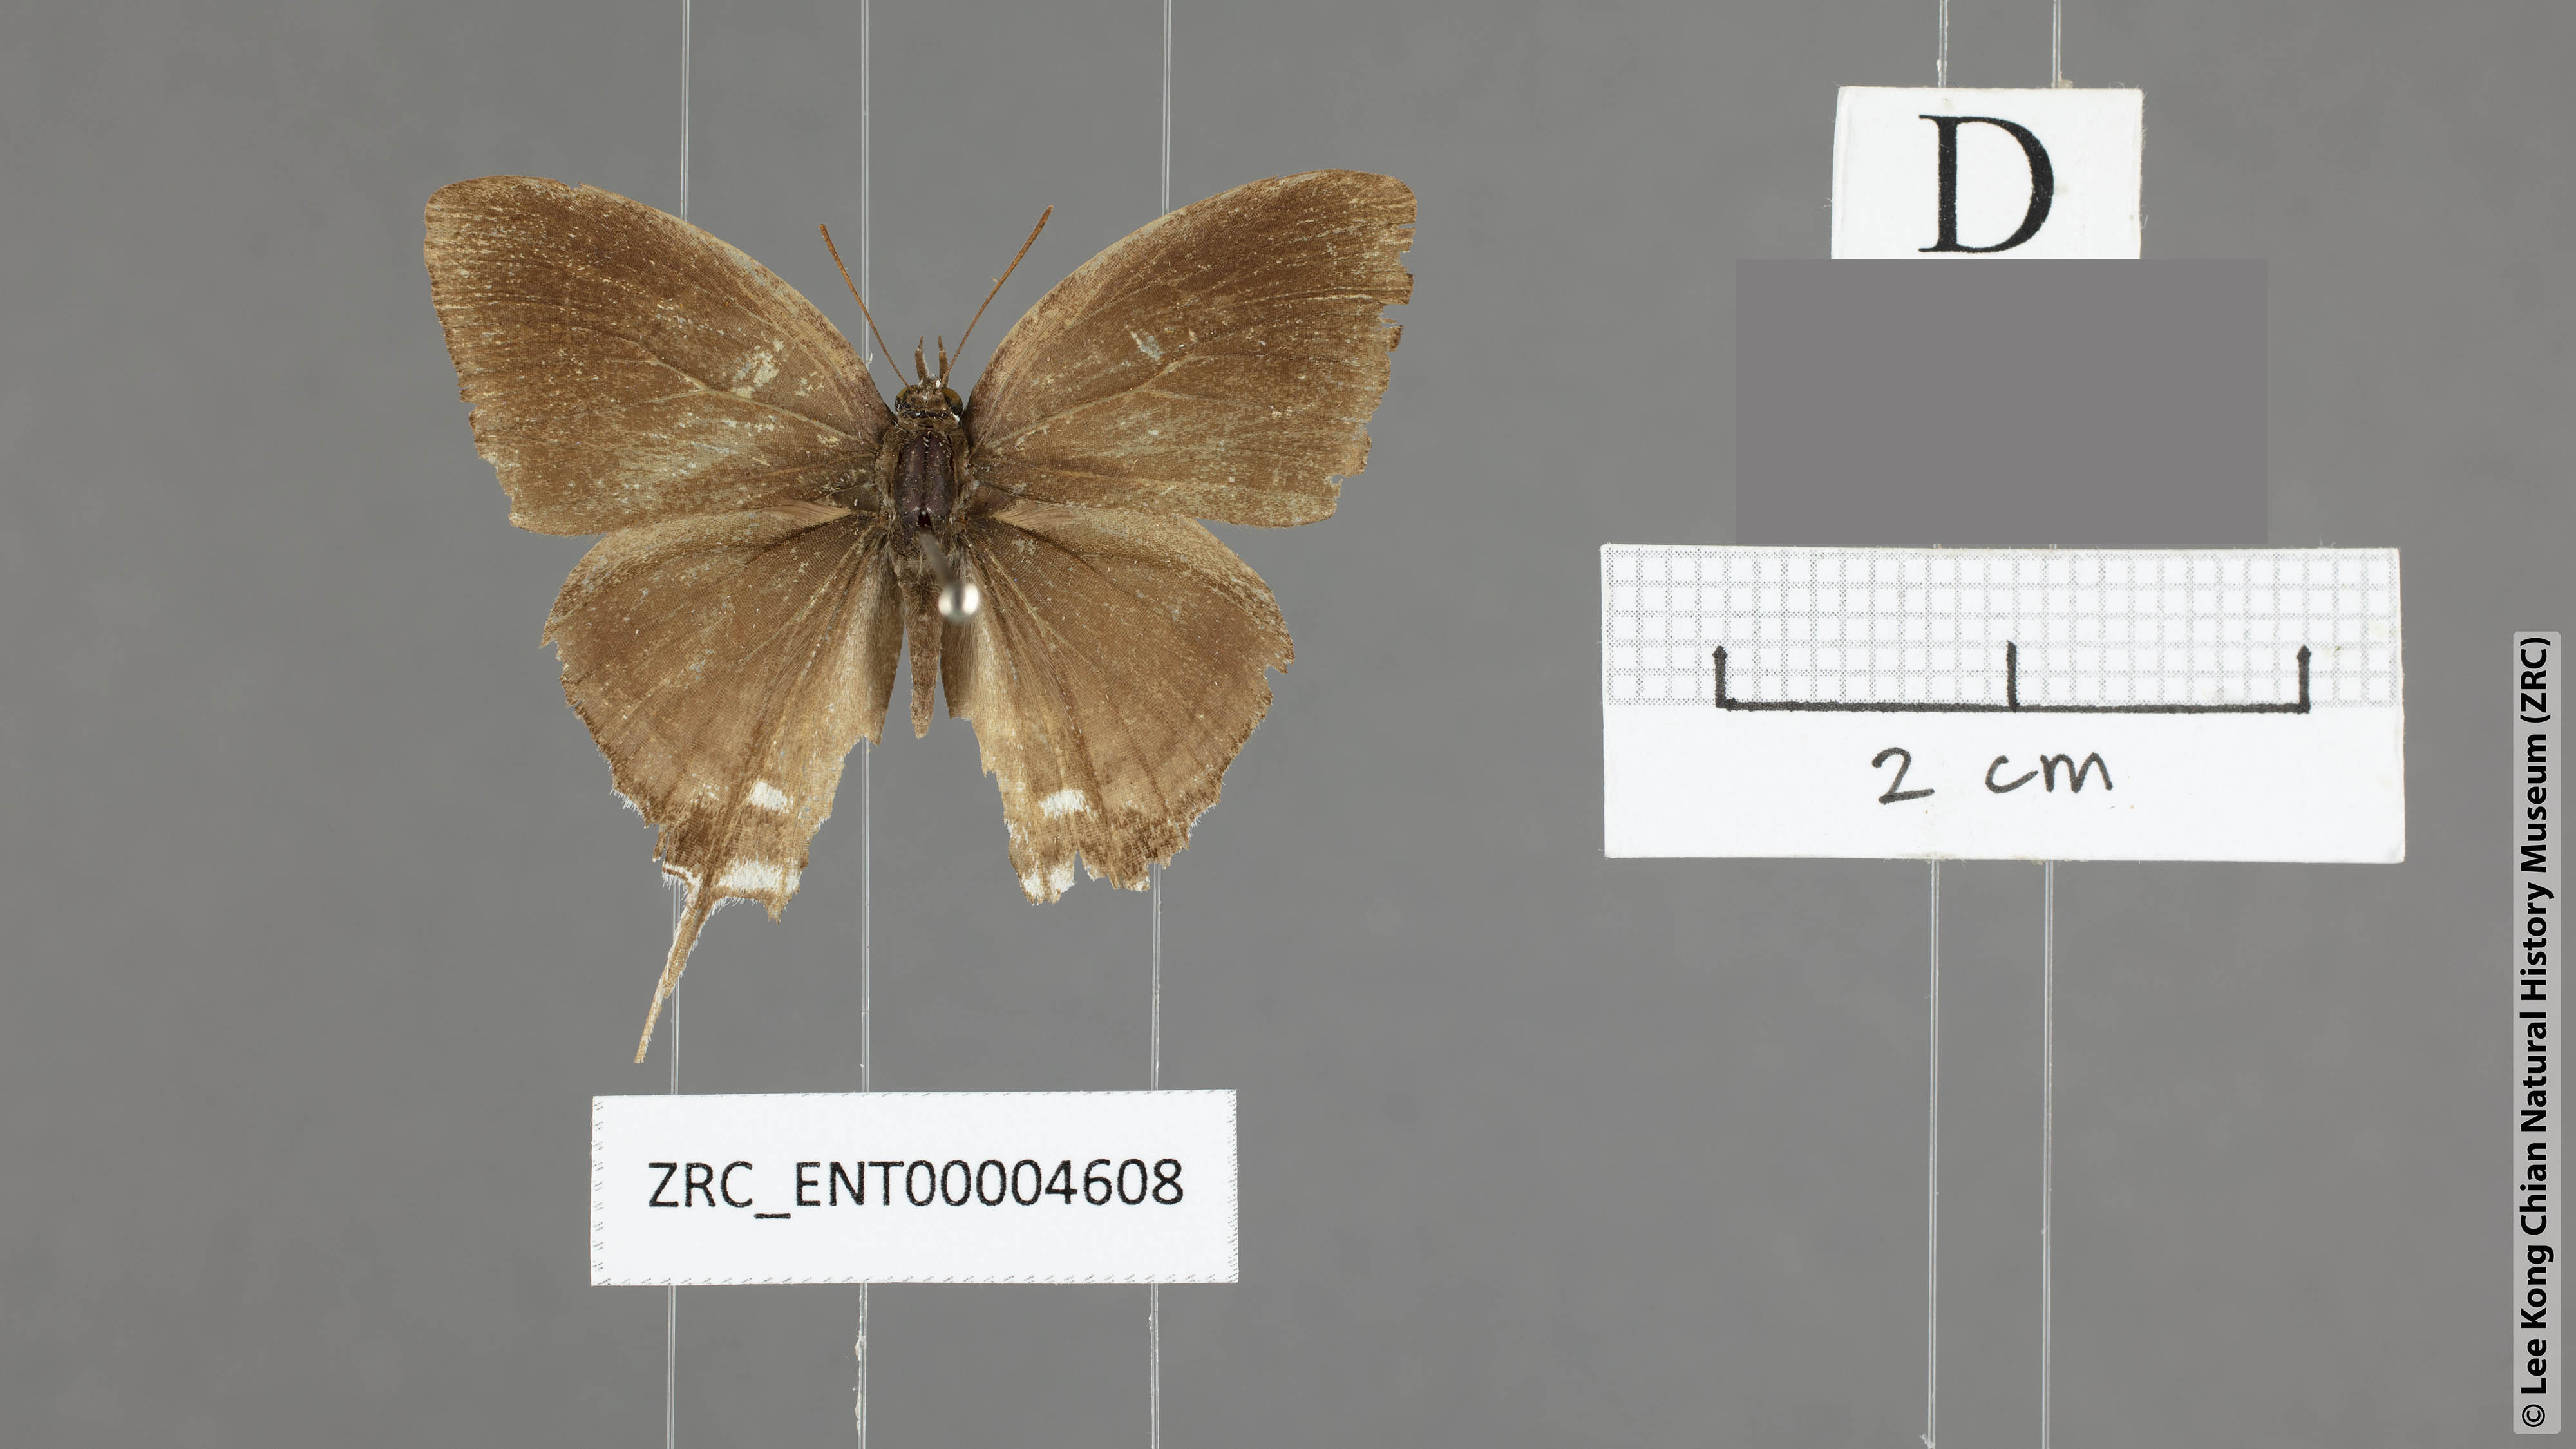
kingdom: Animalia
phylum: Arthropoda
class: Insecta
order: Lepidoptera
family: Lycaenidae
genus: Ticherra
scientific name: Ticherra acte
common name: Blue imperial
